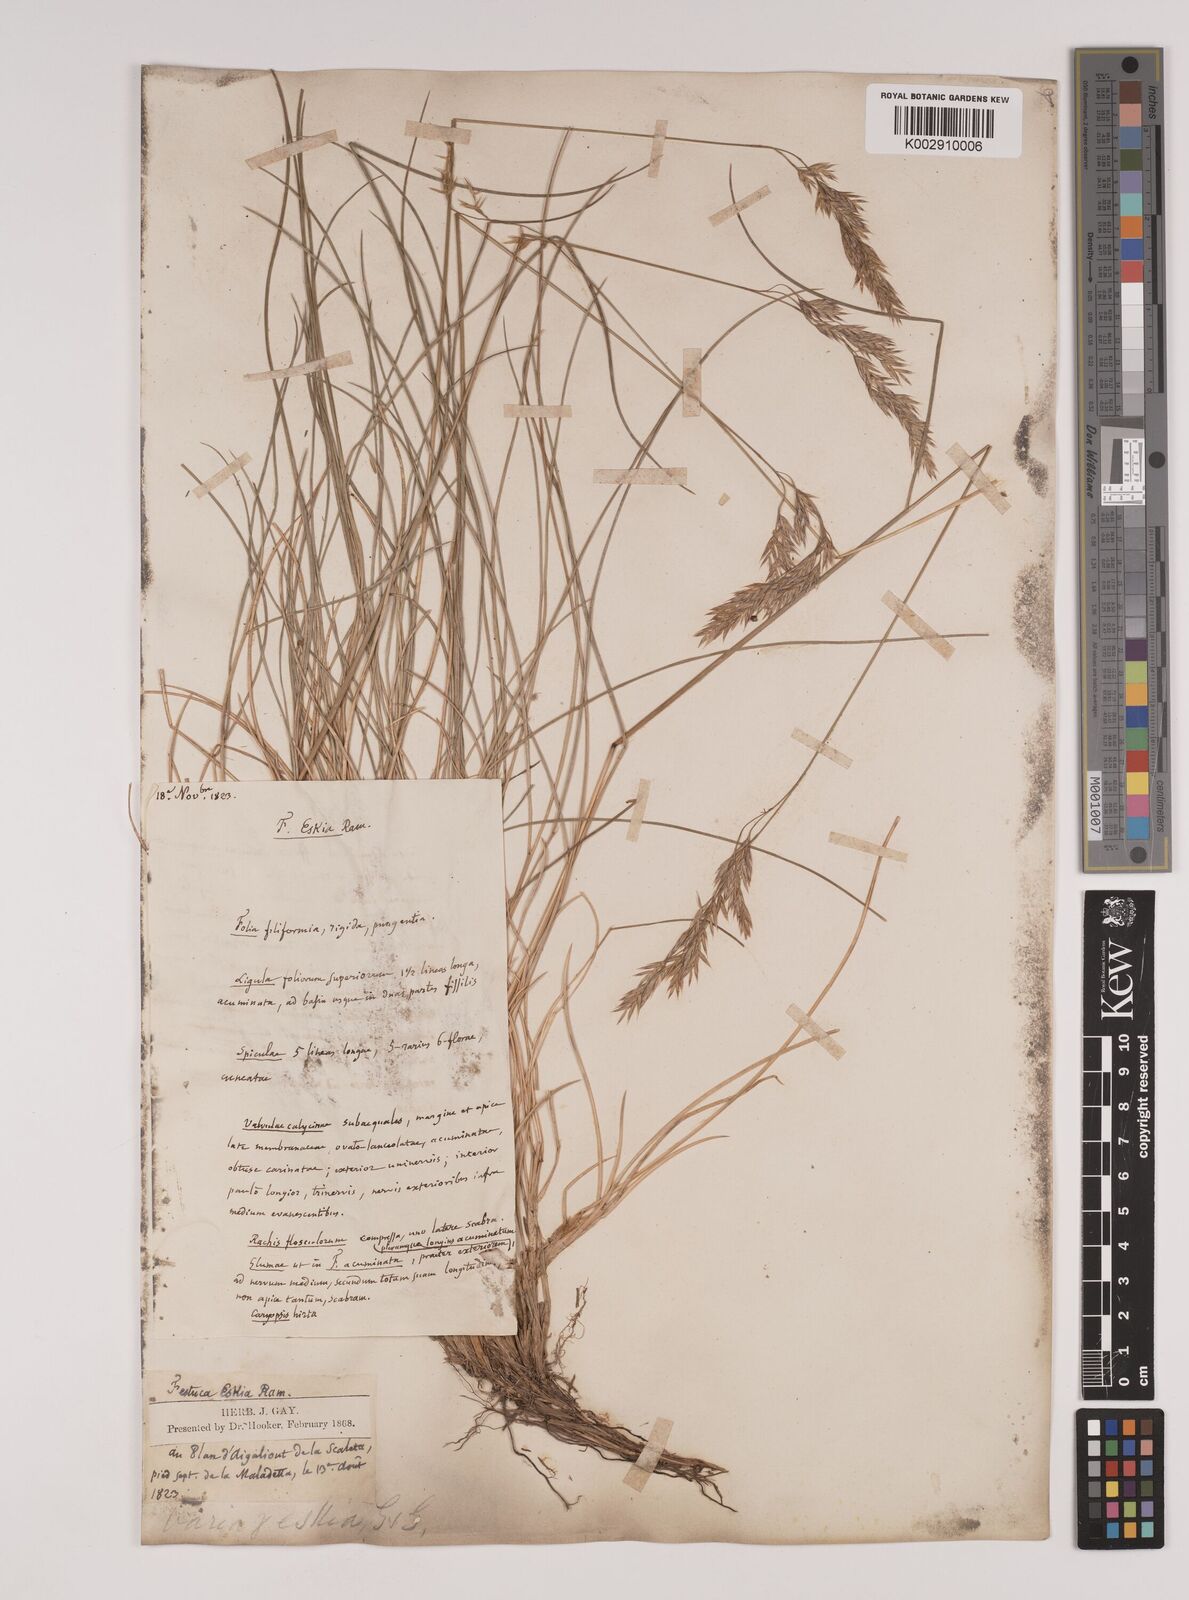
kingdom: Plantae
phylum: Tracheophyta
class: Liliopsida
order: Poales
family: Poaceae
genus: Festuca
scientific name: Festuca eskia
